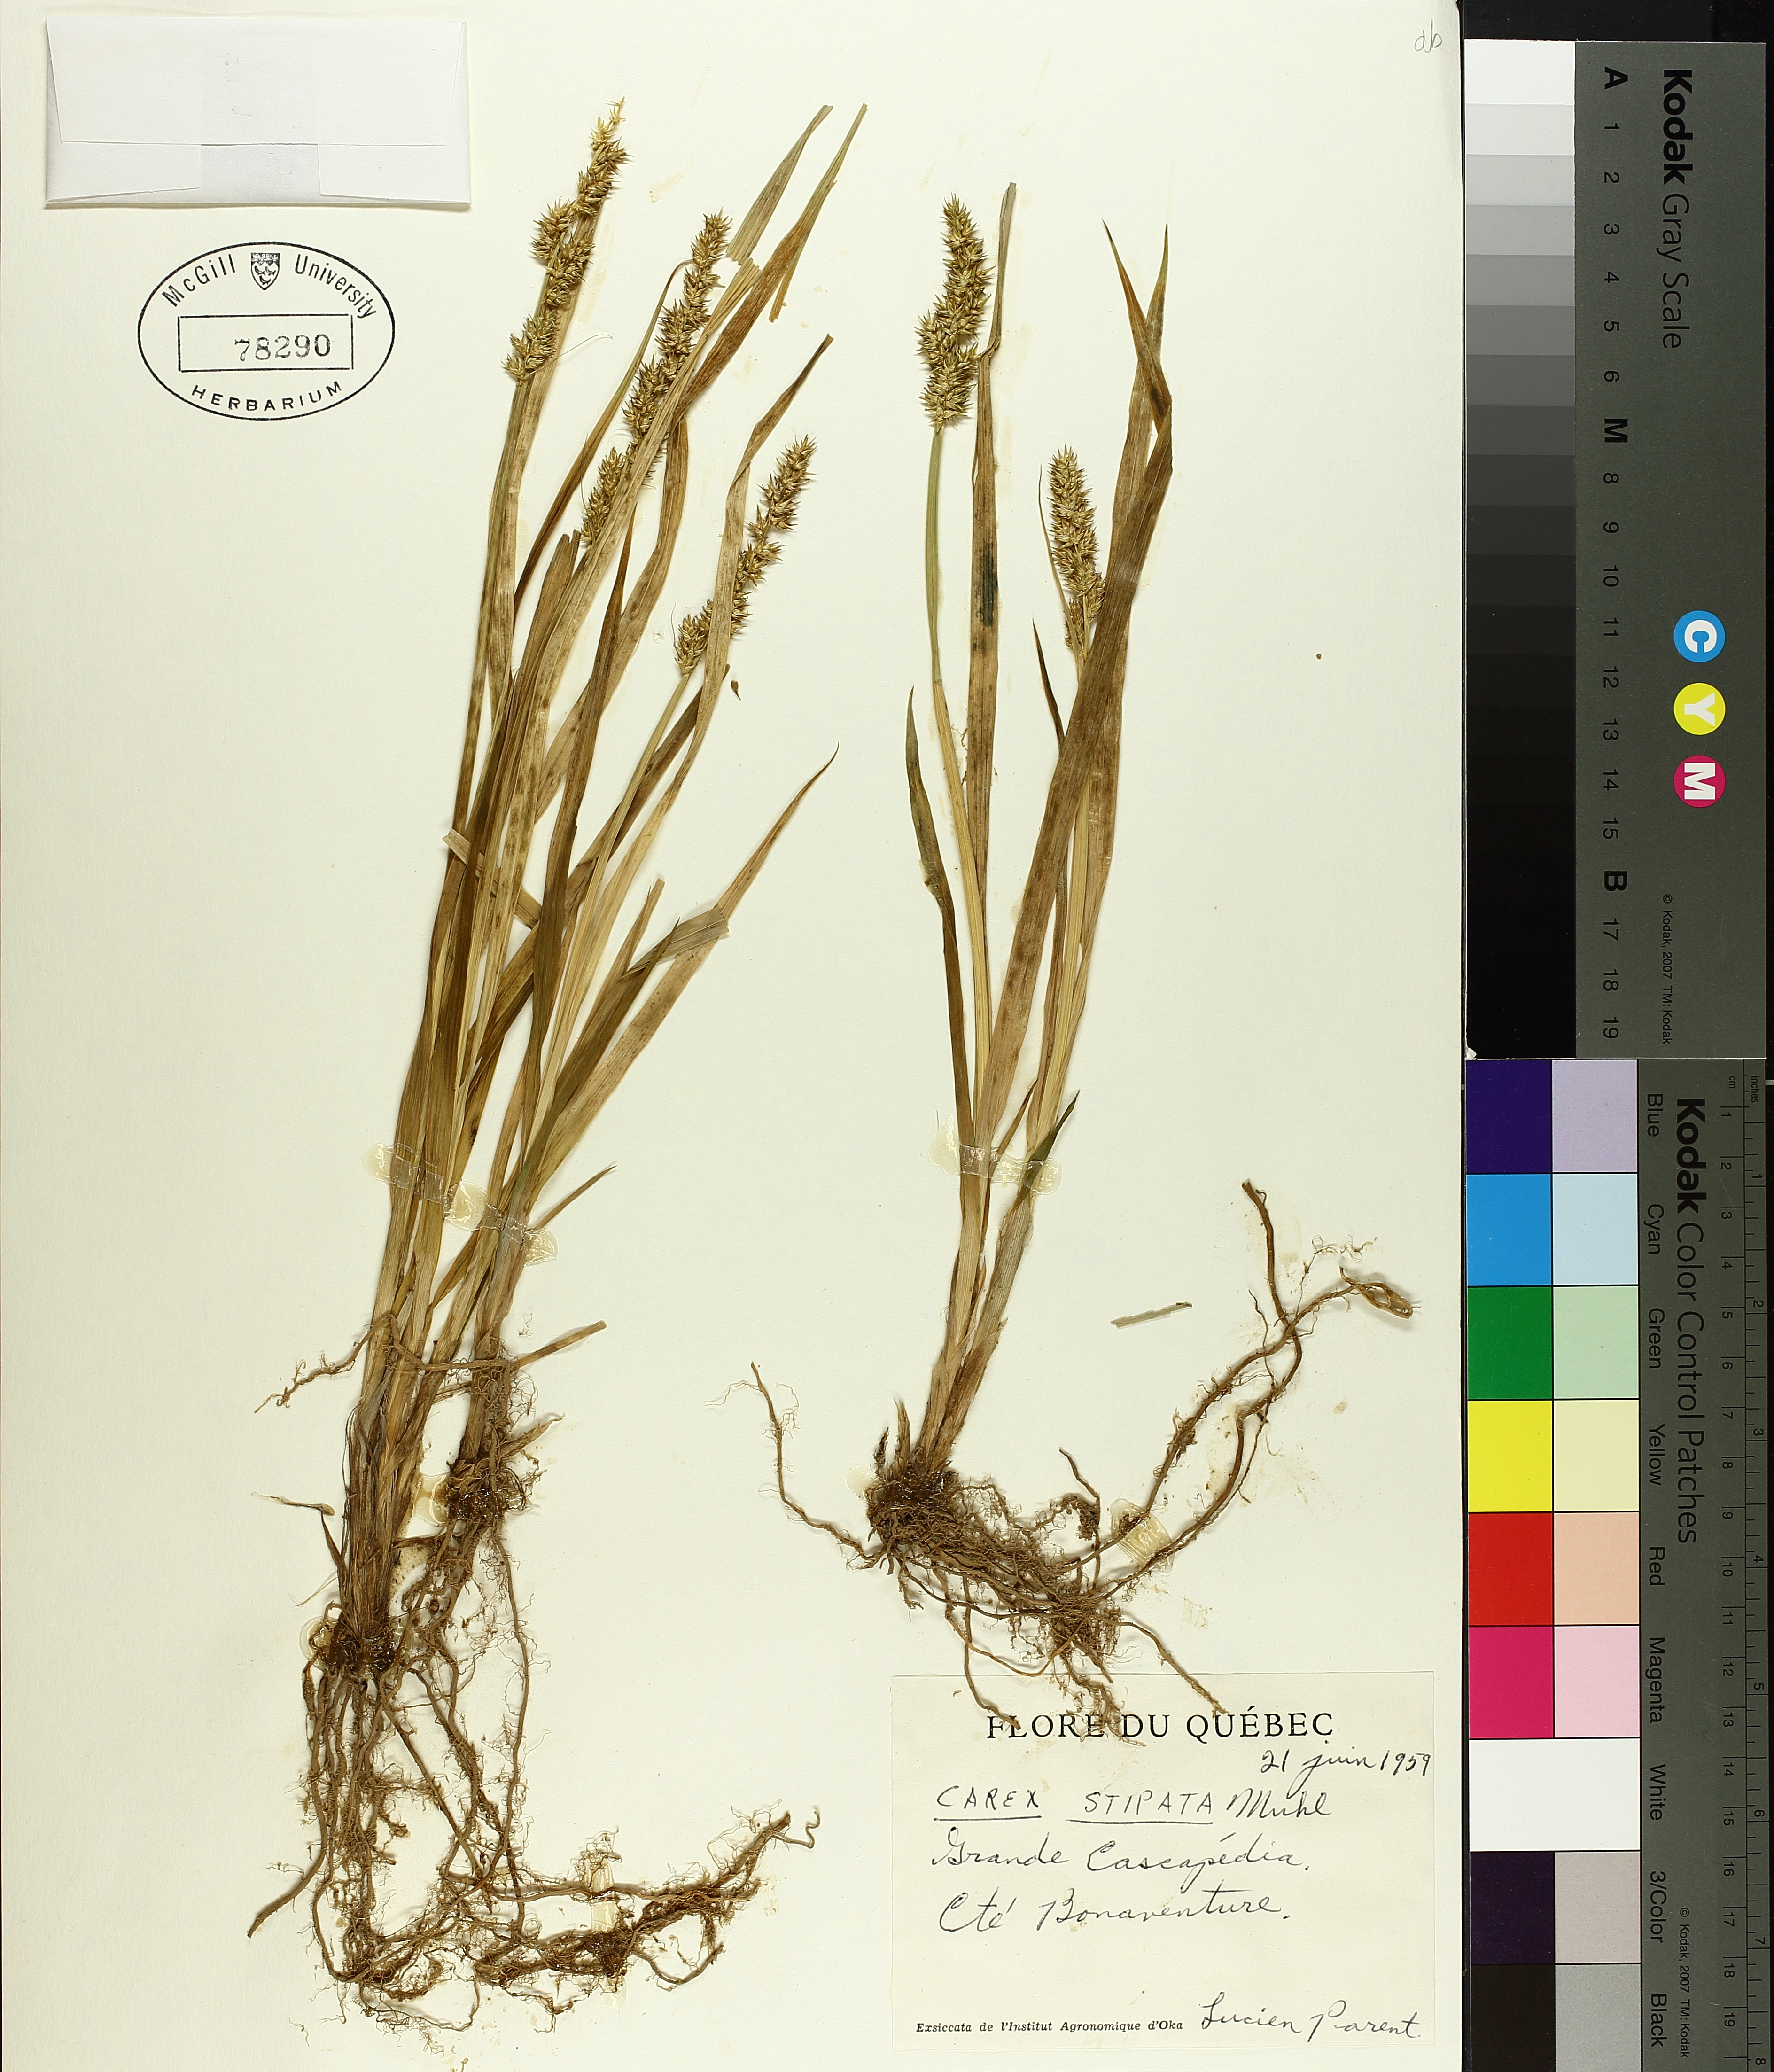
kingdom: Plantae
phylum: Tracheophyta
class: Liliopsida
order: Poales
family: Cyperaceae
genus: Carex
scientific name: Carex stipata
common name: Awl-fruited sedge
